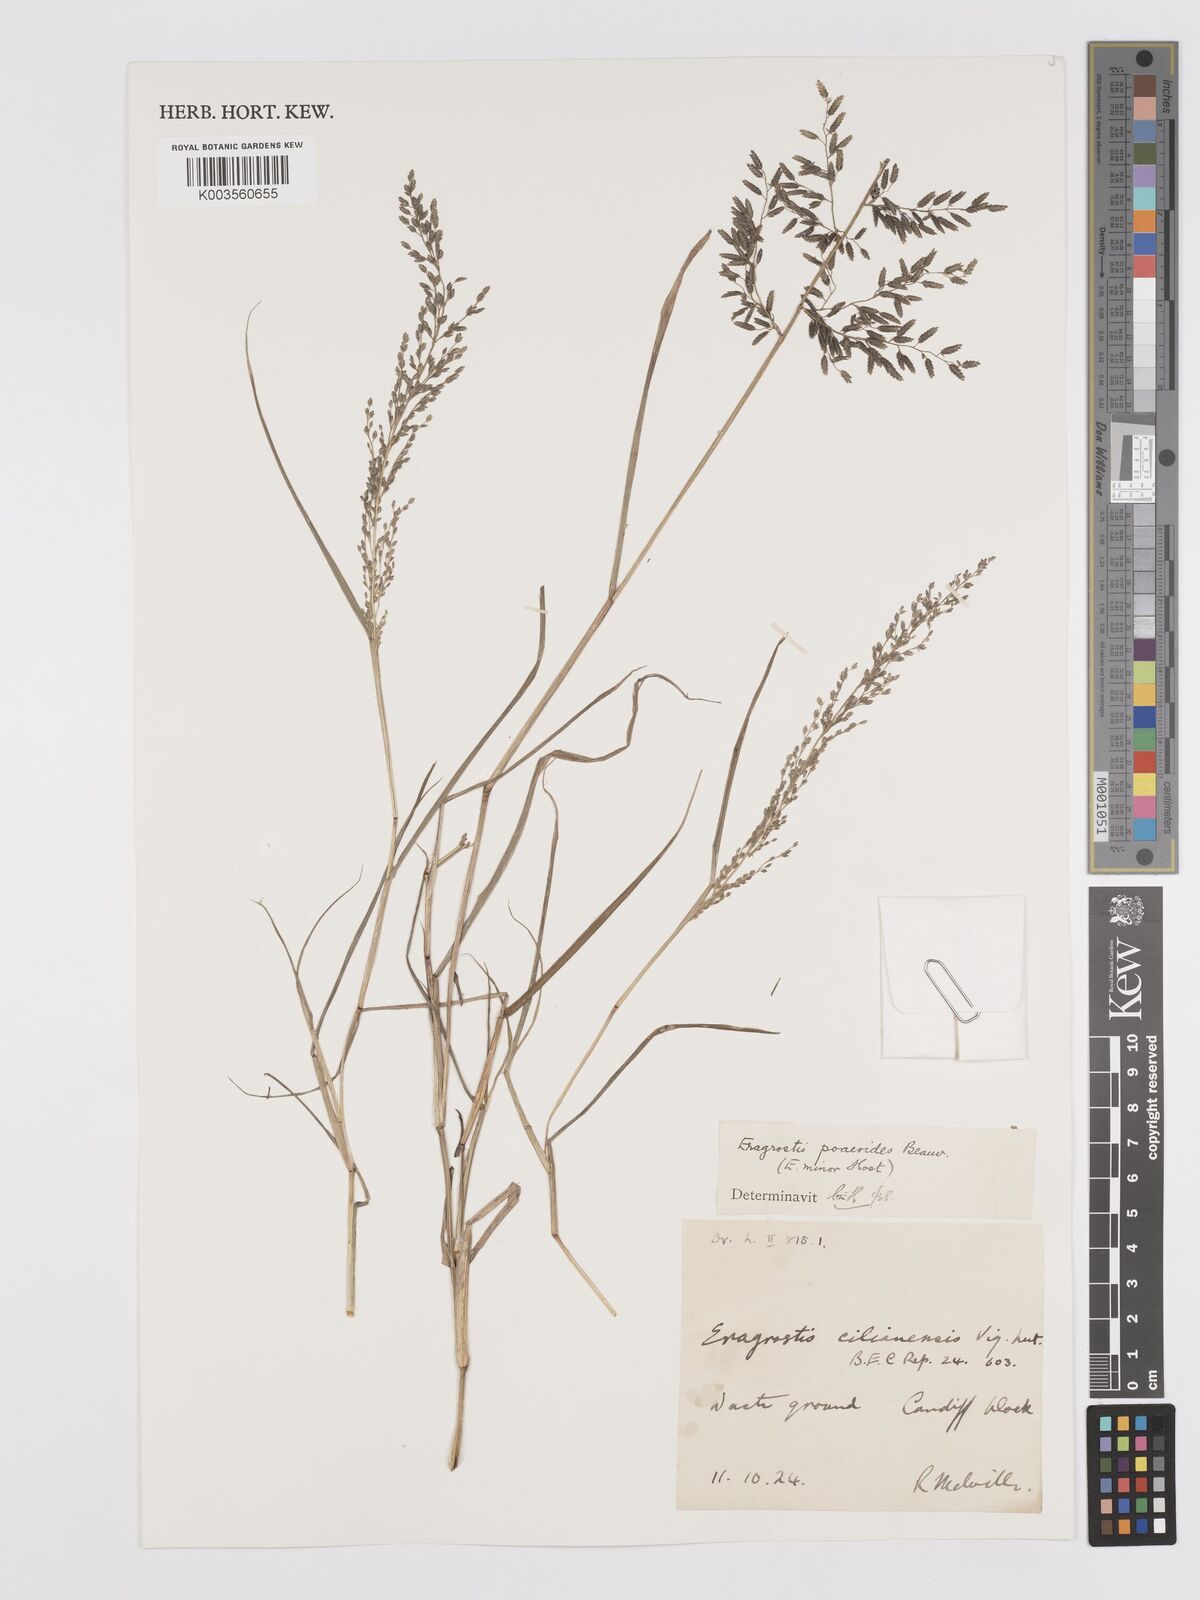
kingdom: Plantae
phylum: Tracheophyta
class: Liliopsida
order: Poales
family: Poaceae
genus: Eragrostis
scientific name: Eragrostis minor
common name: Small love-grass
